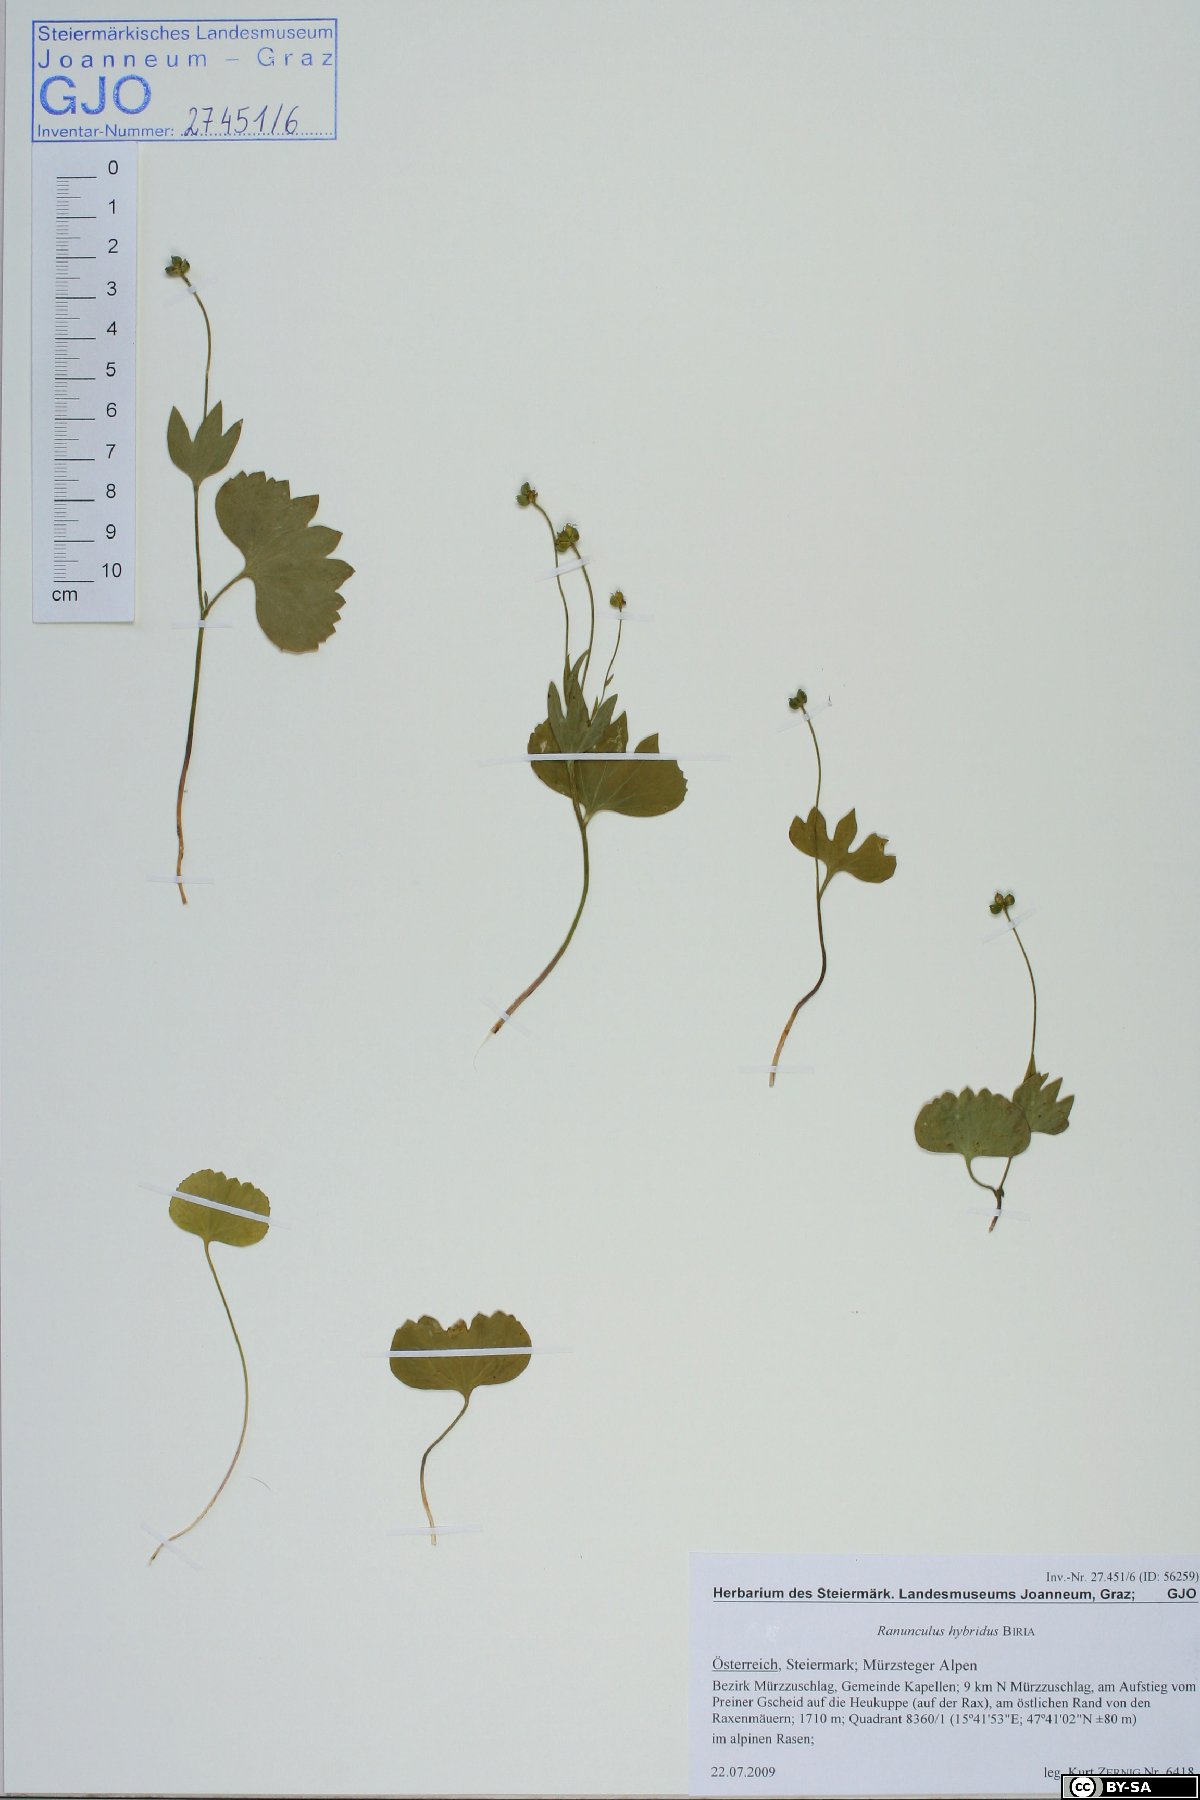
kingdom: Plantae
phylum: Tracheophyta
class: Magnoliopsida
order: Ranunculales
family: Ranunculaceae
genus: Ranunculus
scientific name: Ranunculus hybridus
